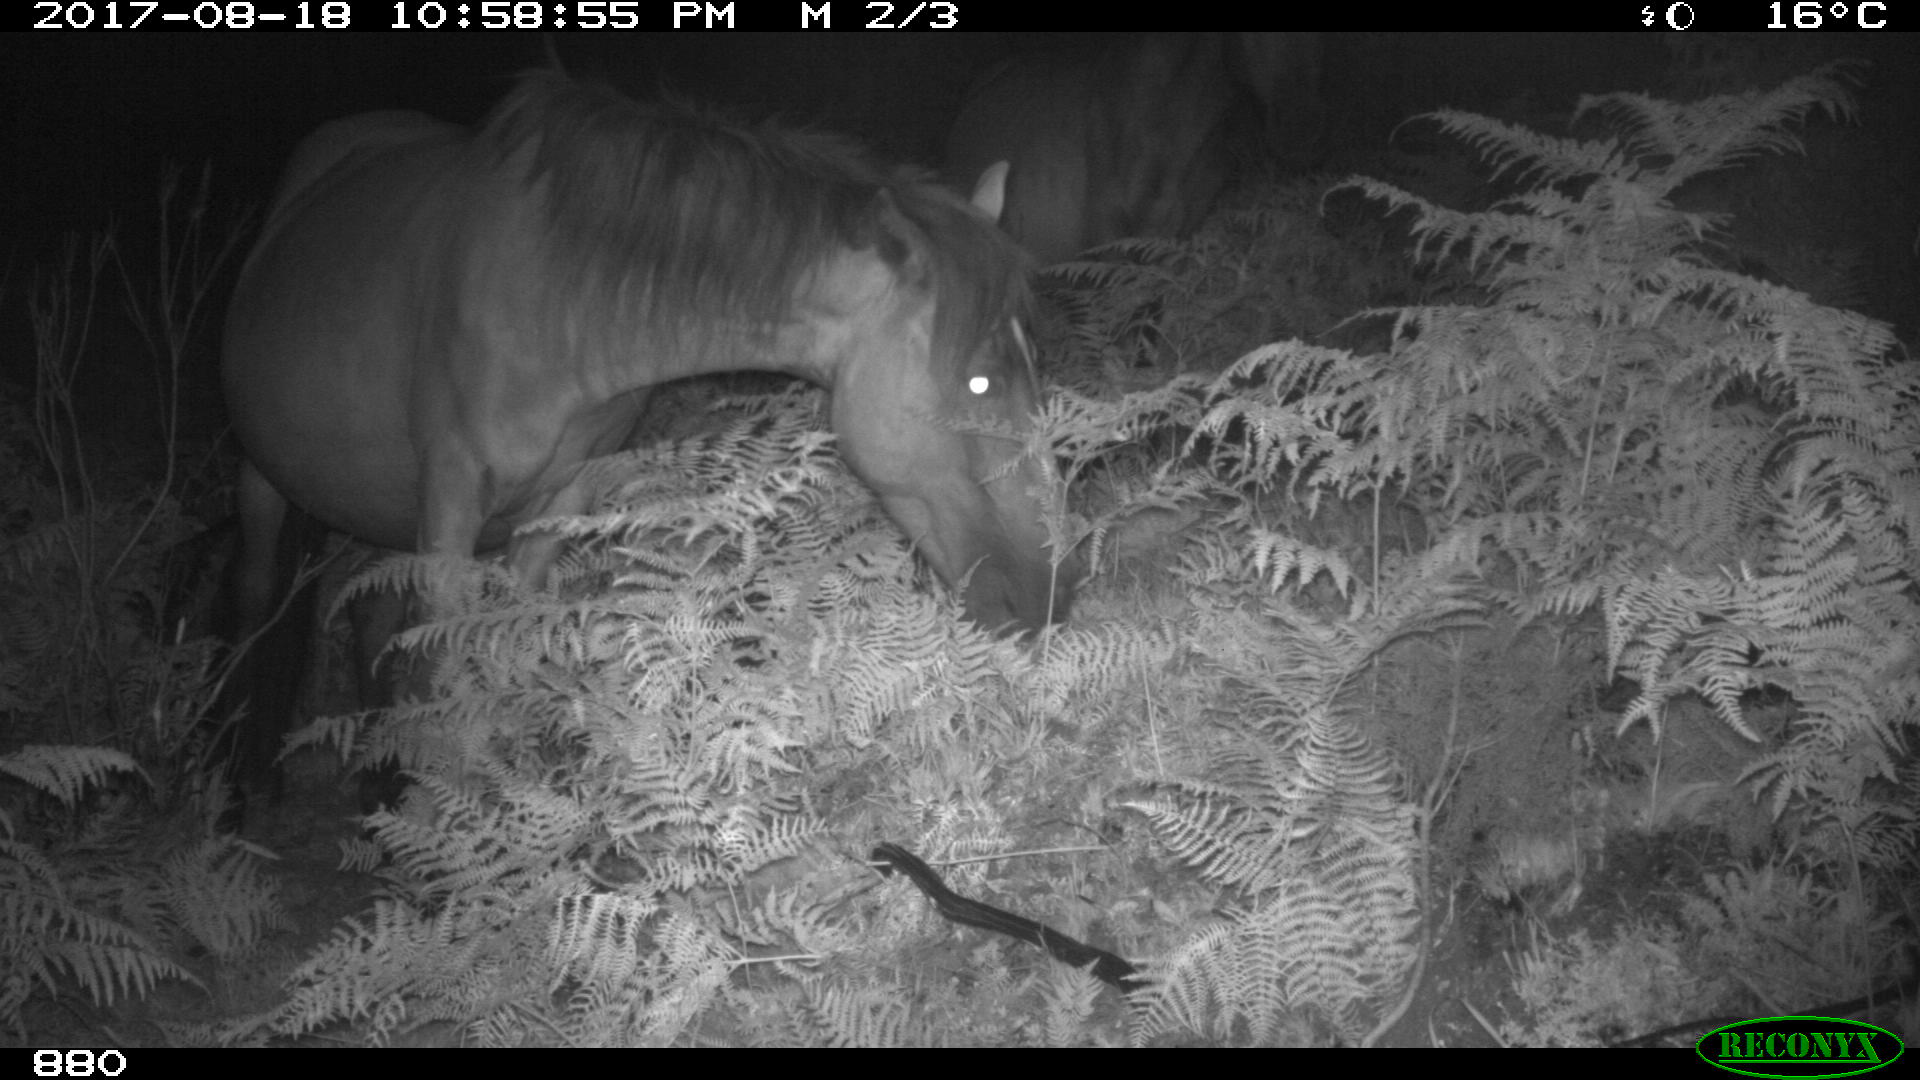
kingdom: Animalia
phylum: Chordata
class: Mammalia
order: Perissodactyla
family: Equidae
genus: Equus
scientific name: Equus caballus
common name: Horse
